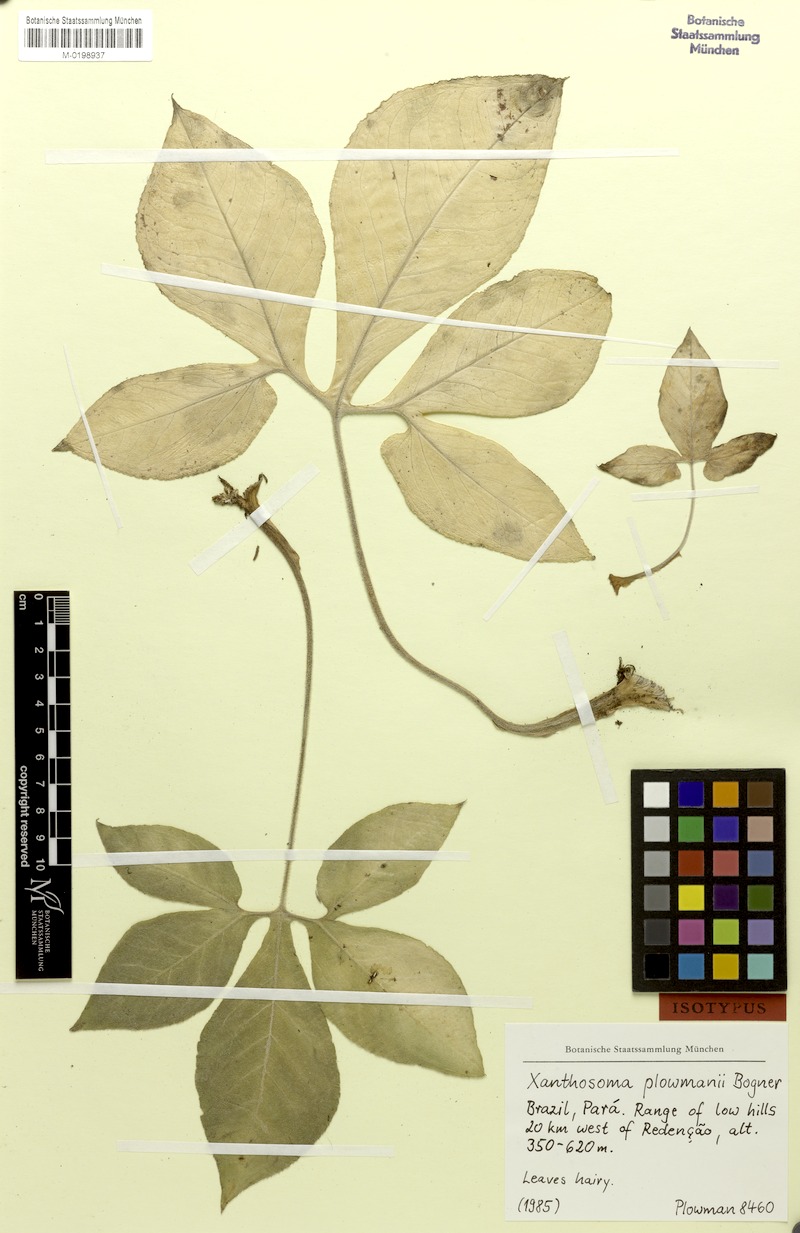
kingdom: Plantae
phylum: Tracheophyta
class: Liliopsida
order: Alismatales
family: Araceae
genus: Xanthosoma
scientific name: Xanthosoma plowmanii
